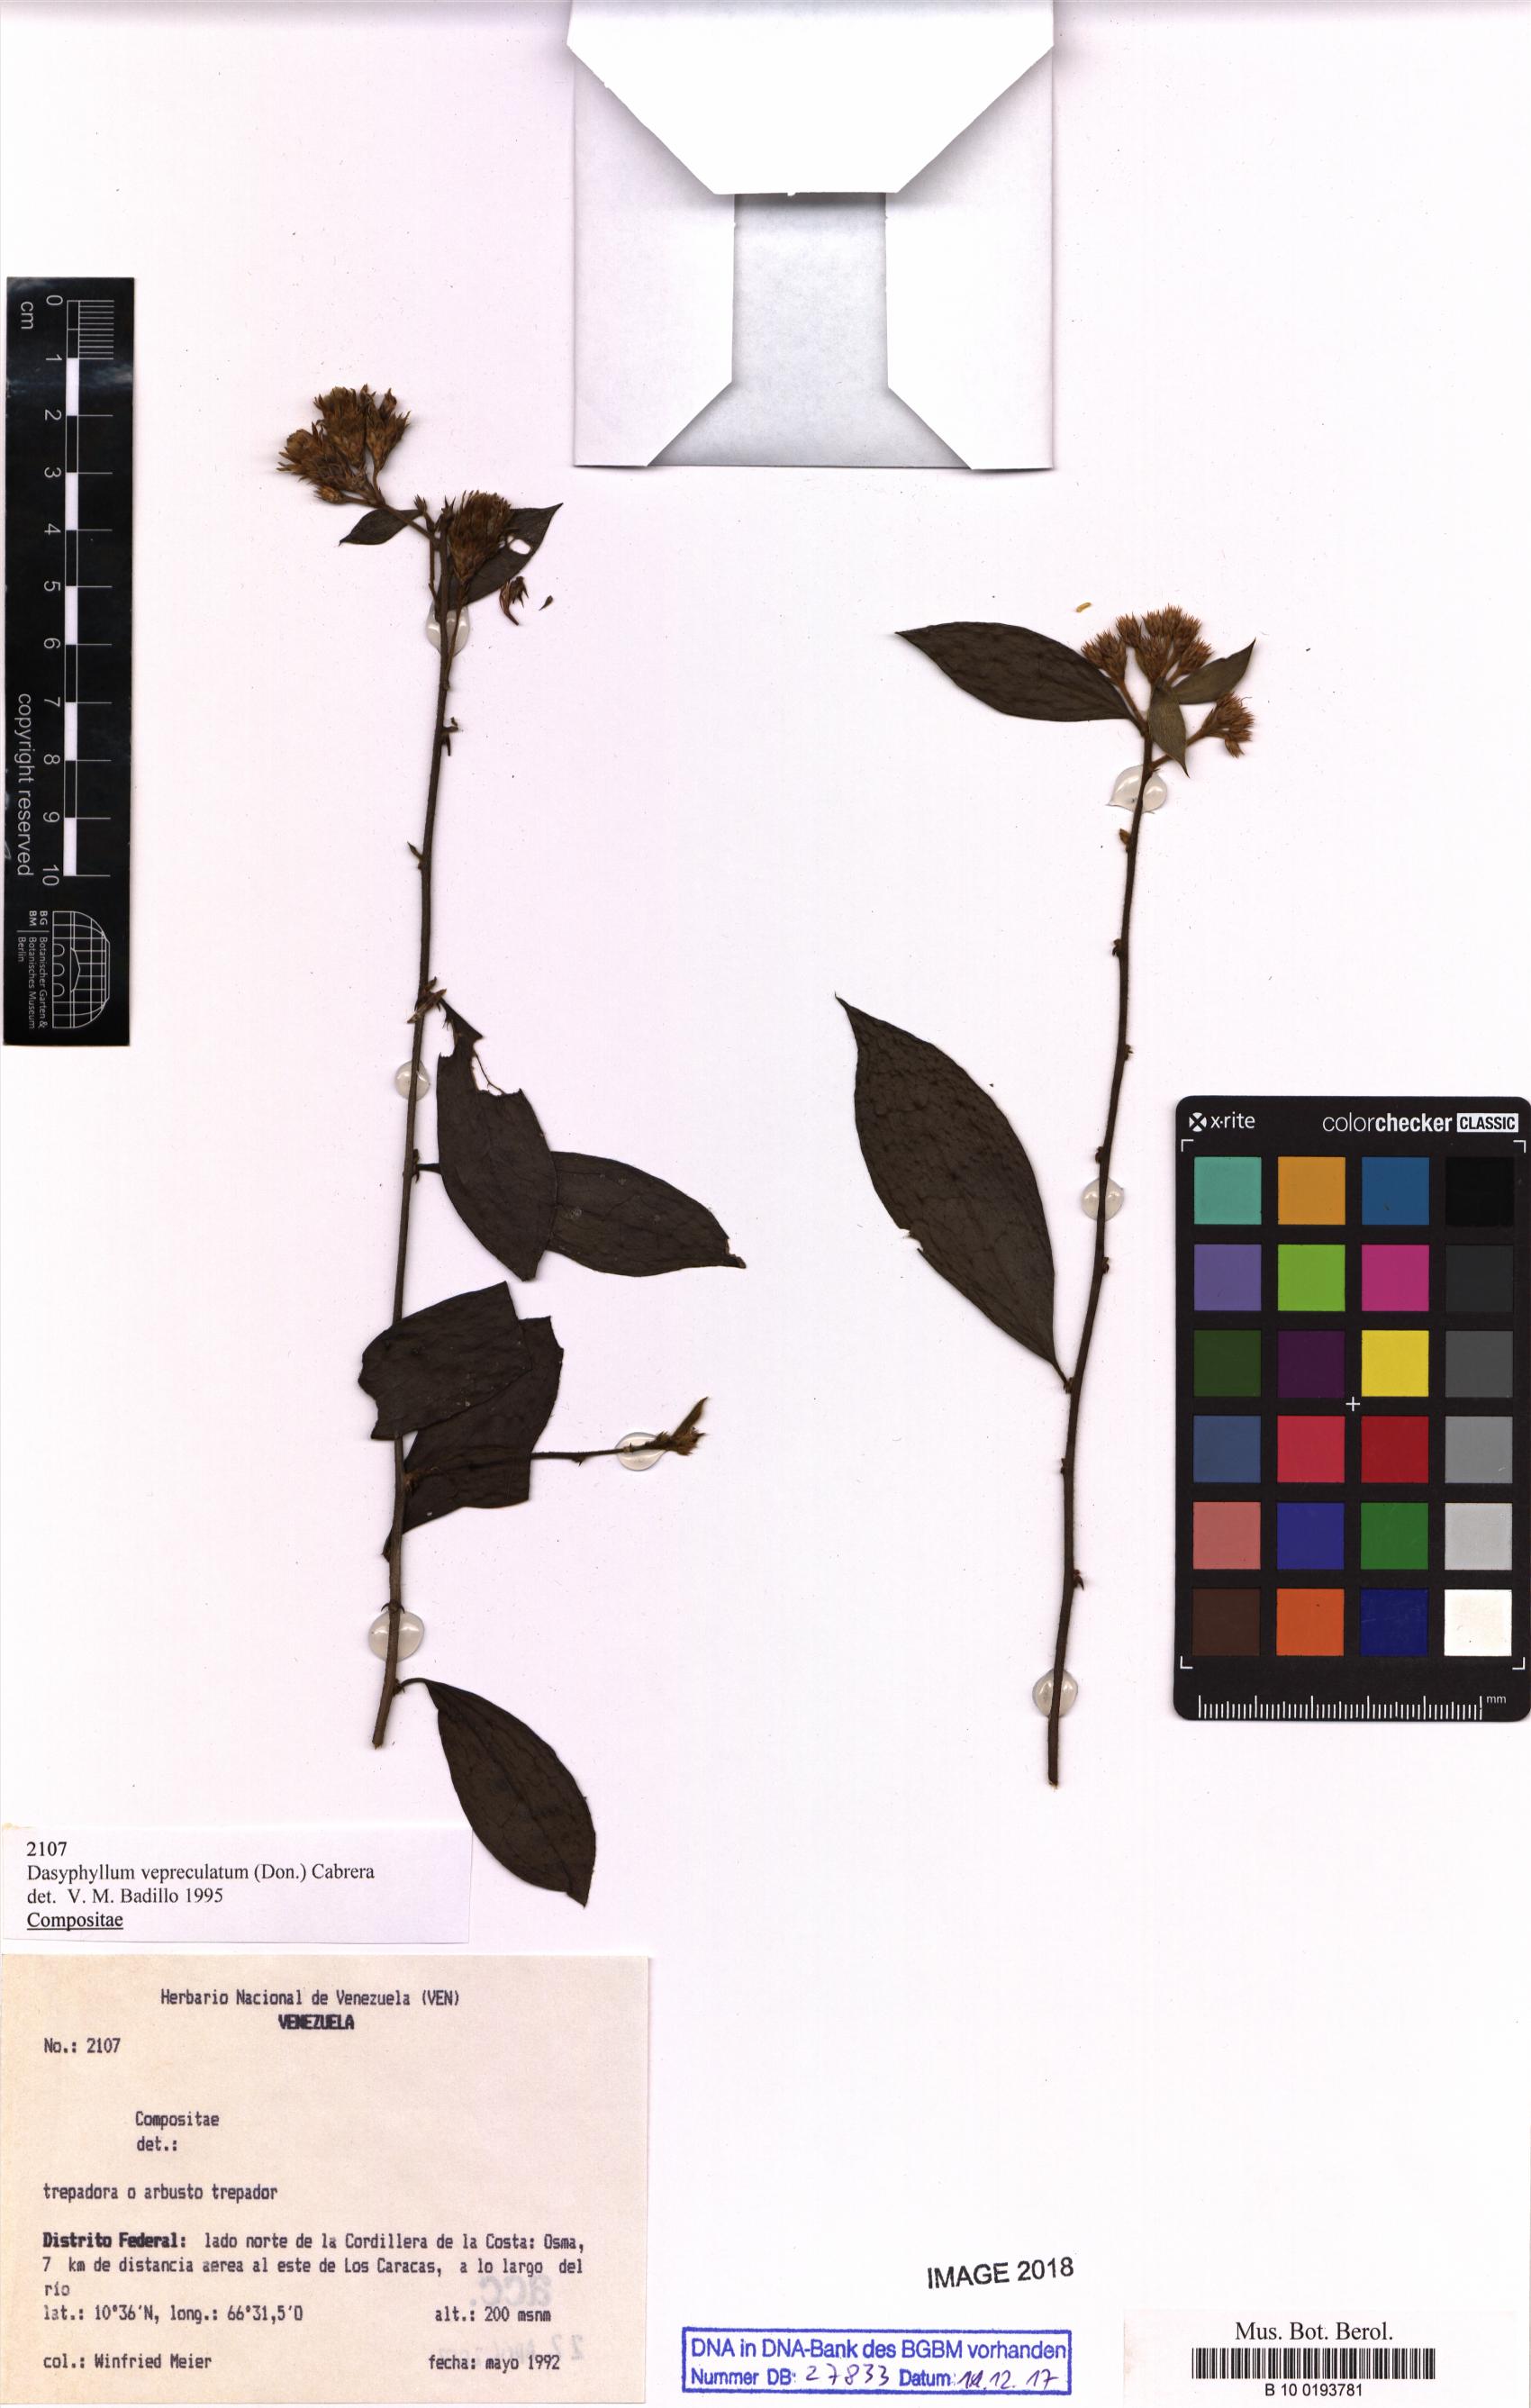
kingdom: Plantae
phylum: Tracheophyta
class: Magnoliopsida
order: Asterales
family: Asteraceae
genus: Dasyphyllum
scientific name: Dasyphyllum vepreculatum
